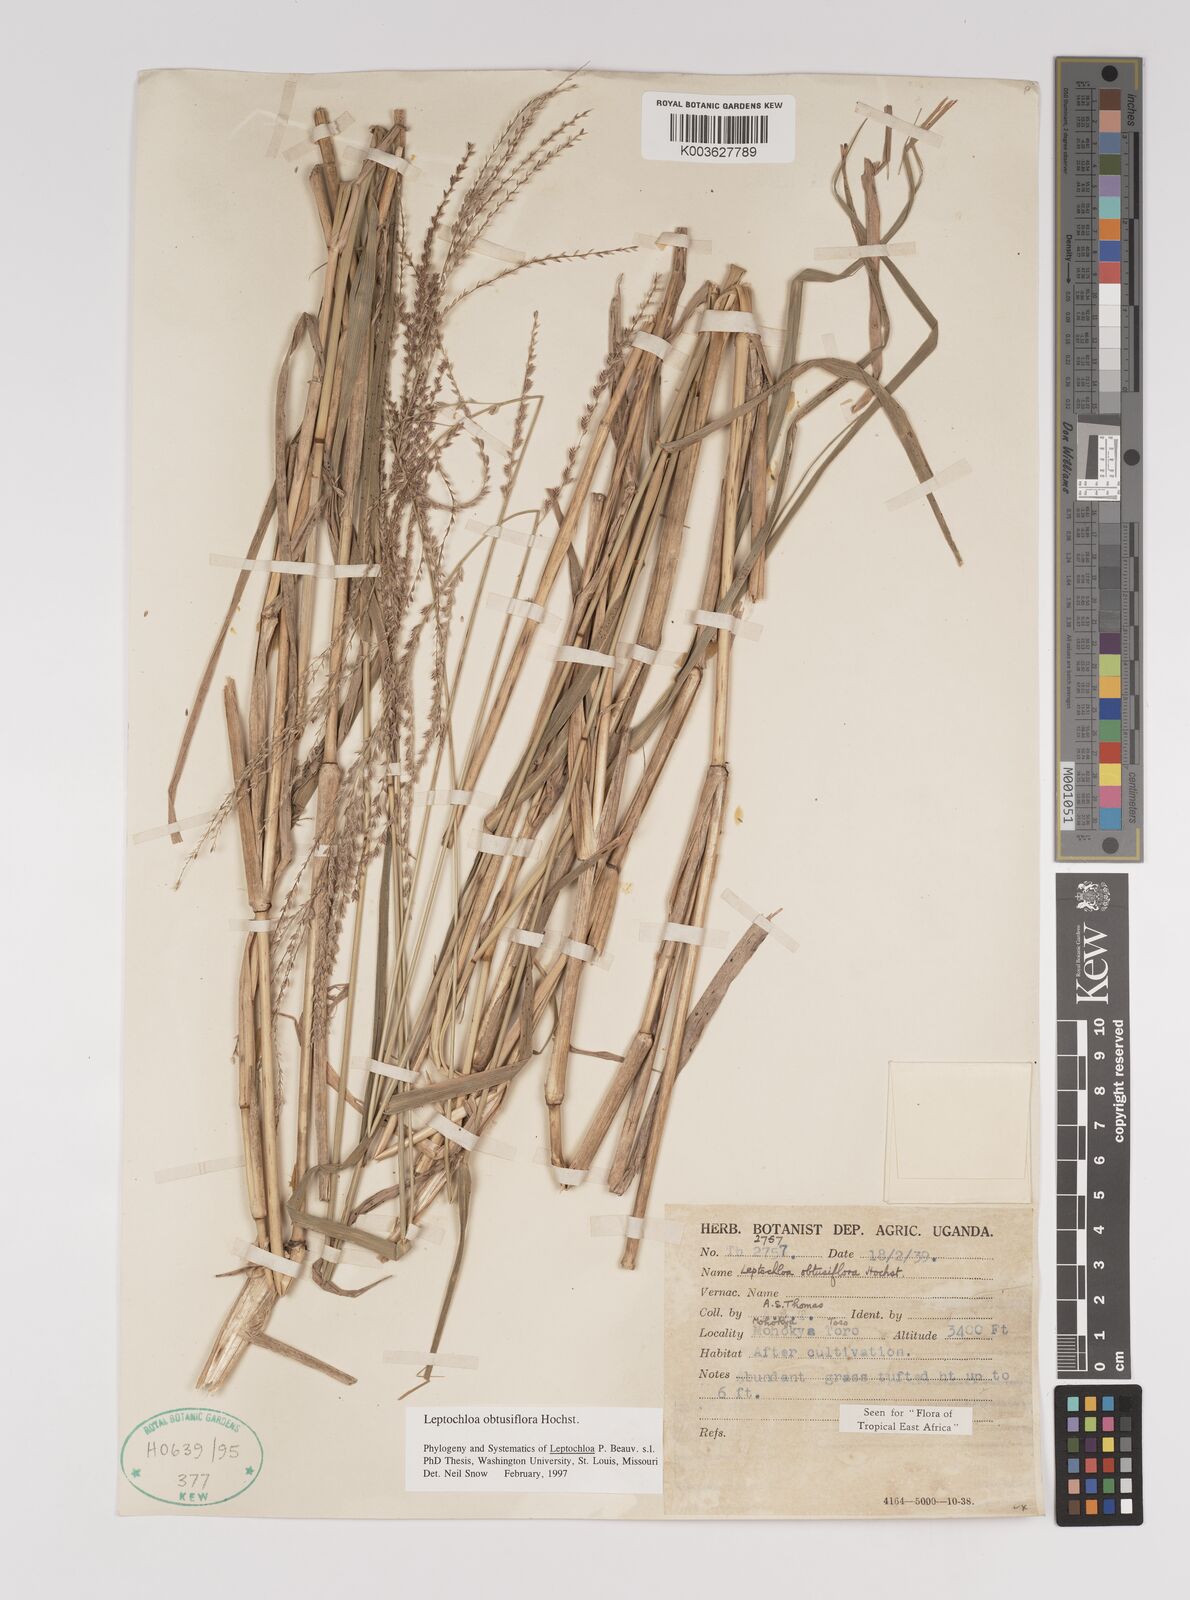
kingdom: Plantae
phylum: Tracheophyta
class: Liliopsida
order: Poales
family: Poaceae
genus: Disakisperma
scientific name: Disakisperma obtusiflorum
